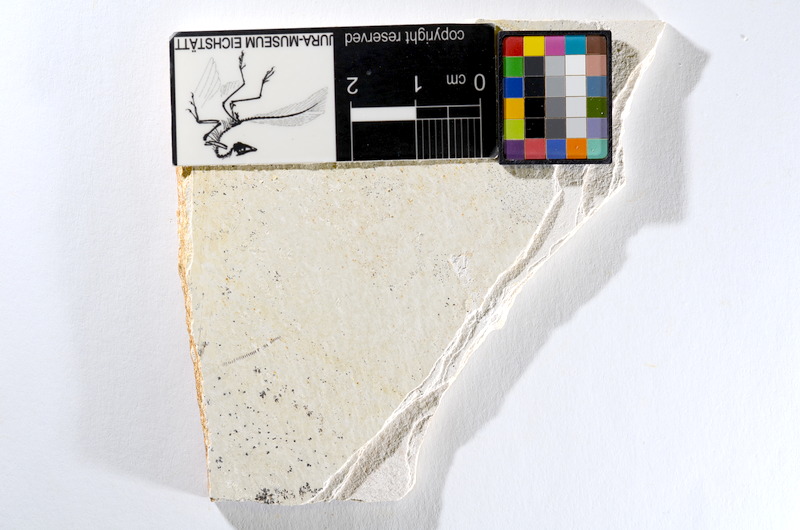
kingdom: Animalia
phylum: Chordata
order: Salmoniformes
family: Orthogonikleithridae
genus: Orthogonikleithrus
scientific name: Orthogonikleithrus hoelli
